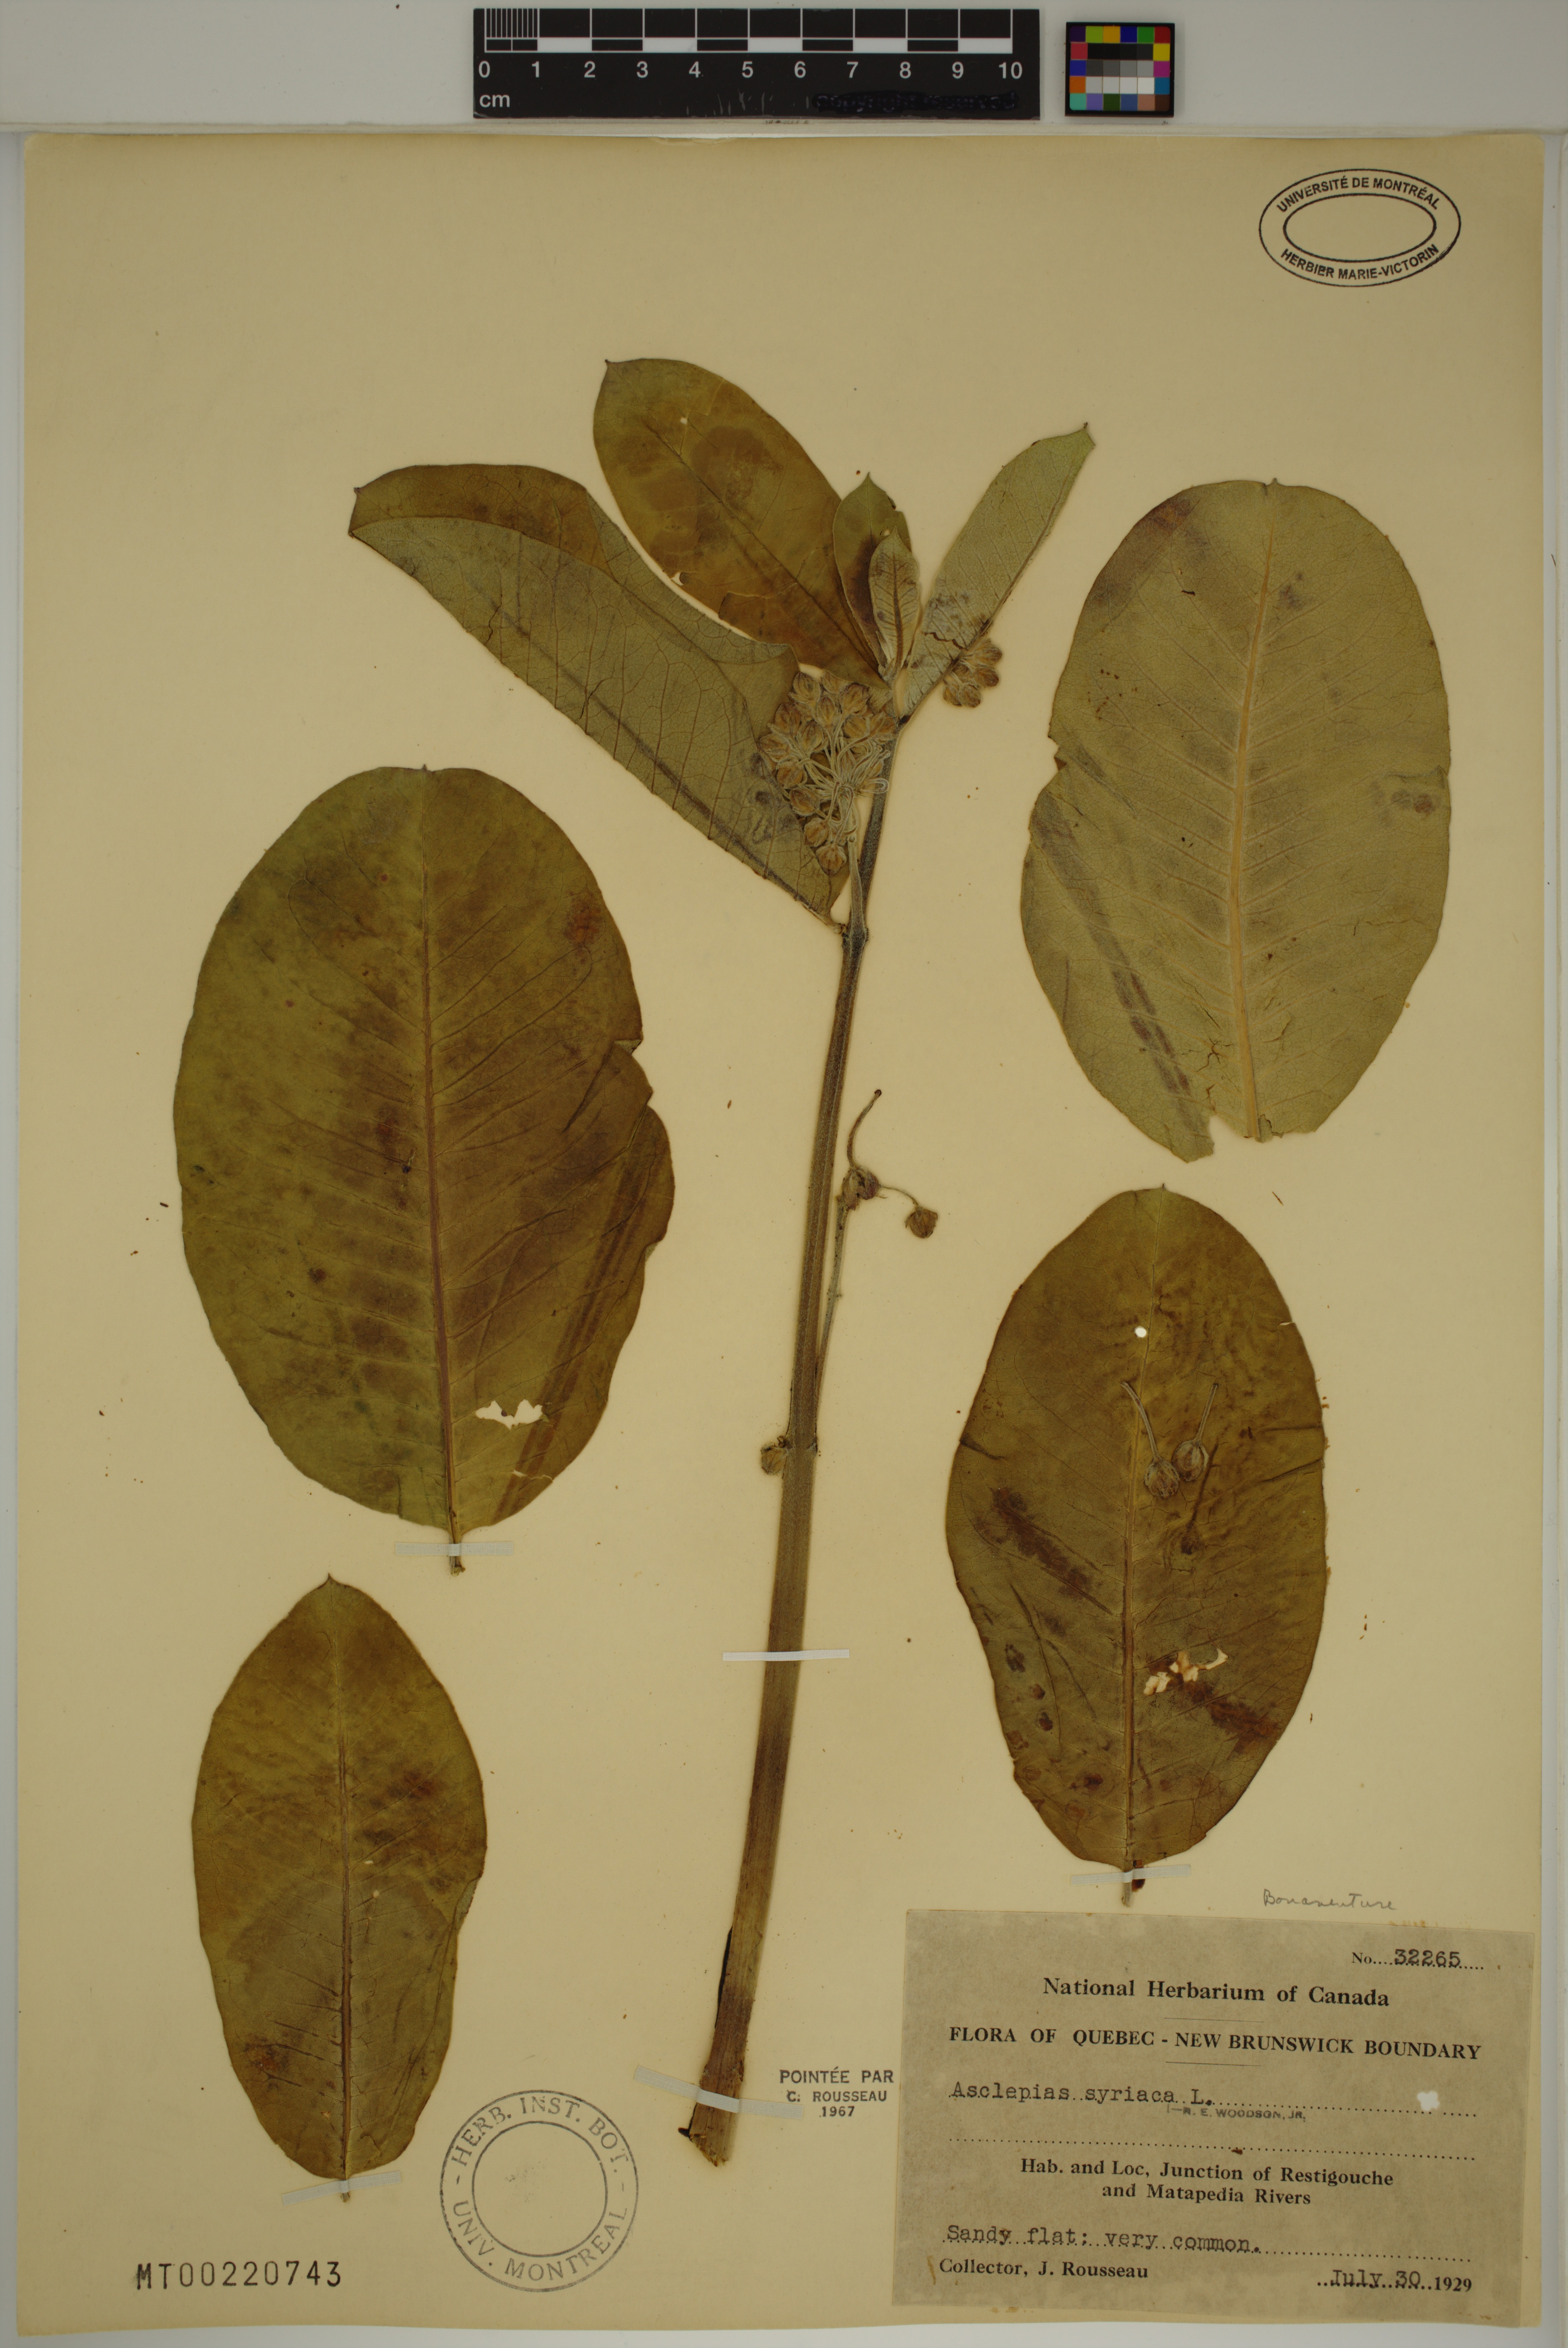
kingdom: Plantae
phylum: Tracheophyta
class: Magnoliopsida
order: Gentianales
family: Apocynaceae
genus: Asclepias
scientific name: Asclepias syriaca
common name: Common milkweed
